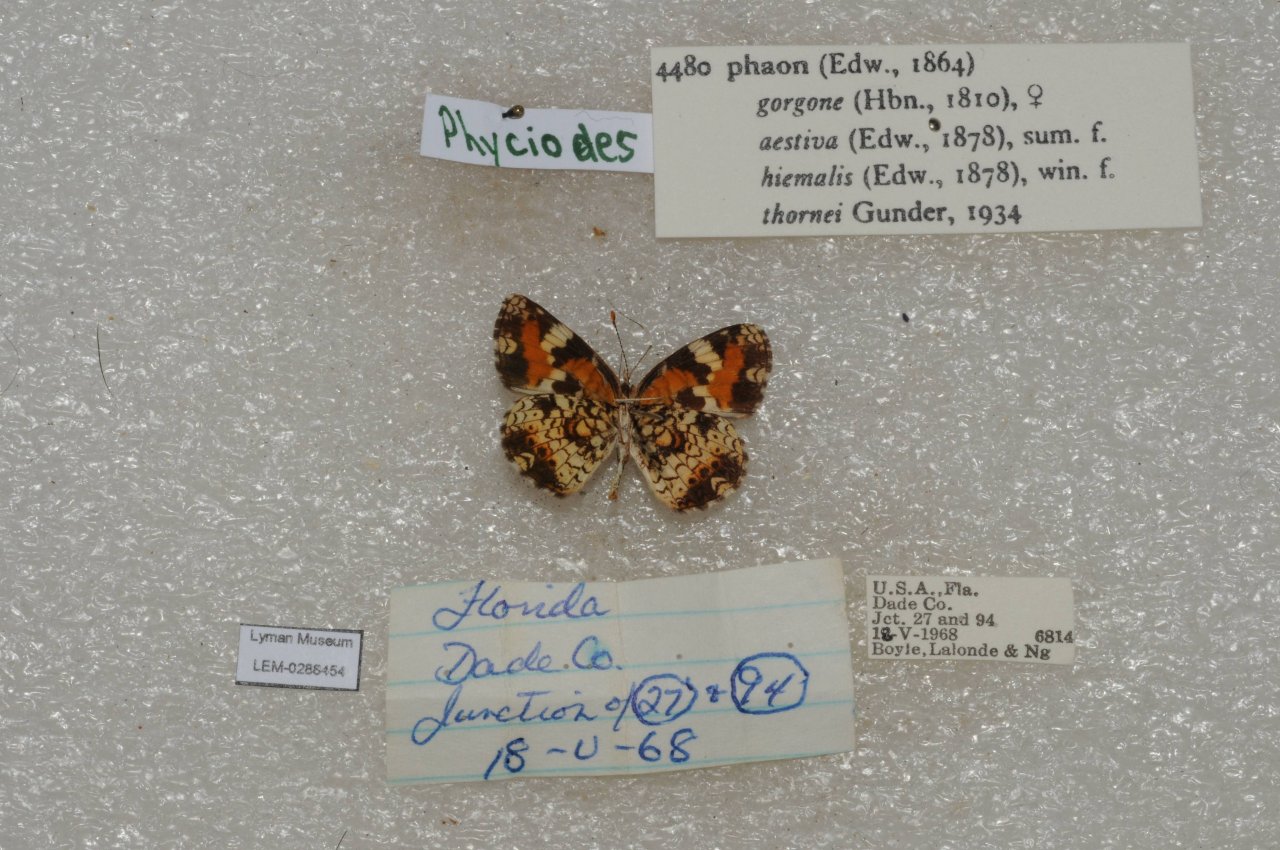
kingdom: Animalia
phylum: Arthropoda
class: Insecta
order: Lepidoptera
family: Nymphalidae
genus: Phyciodes
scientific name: Phyciodes phaon
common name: Phaon Crescent
